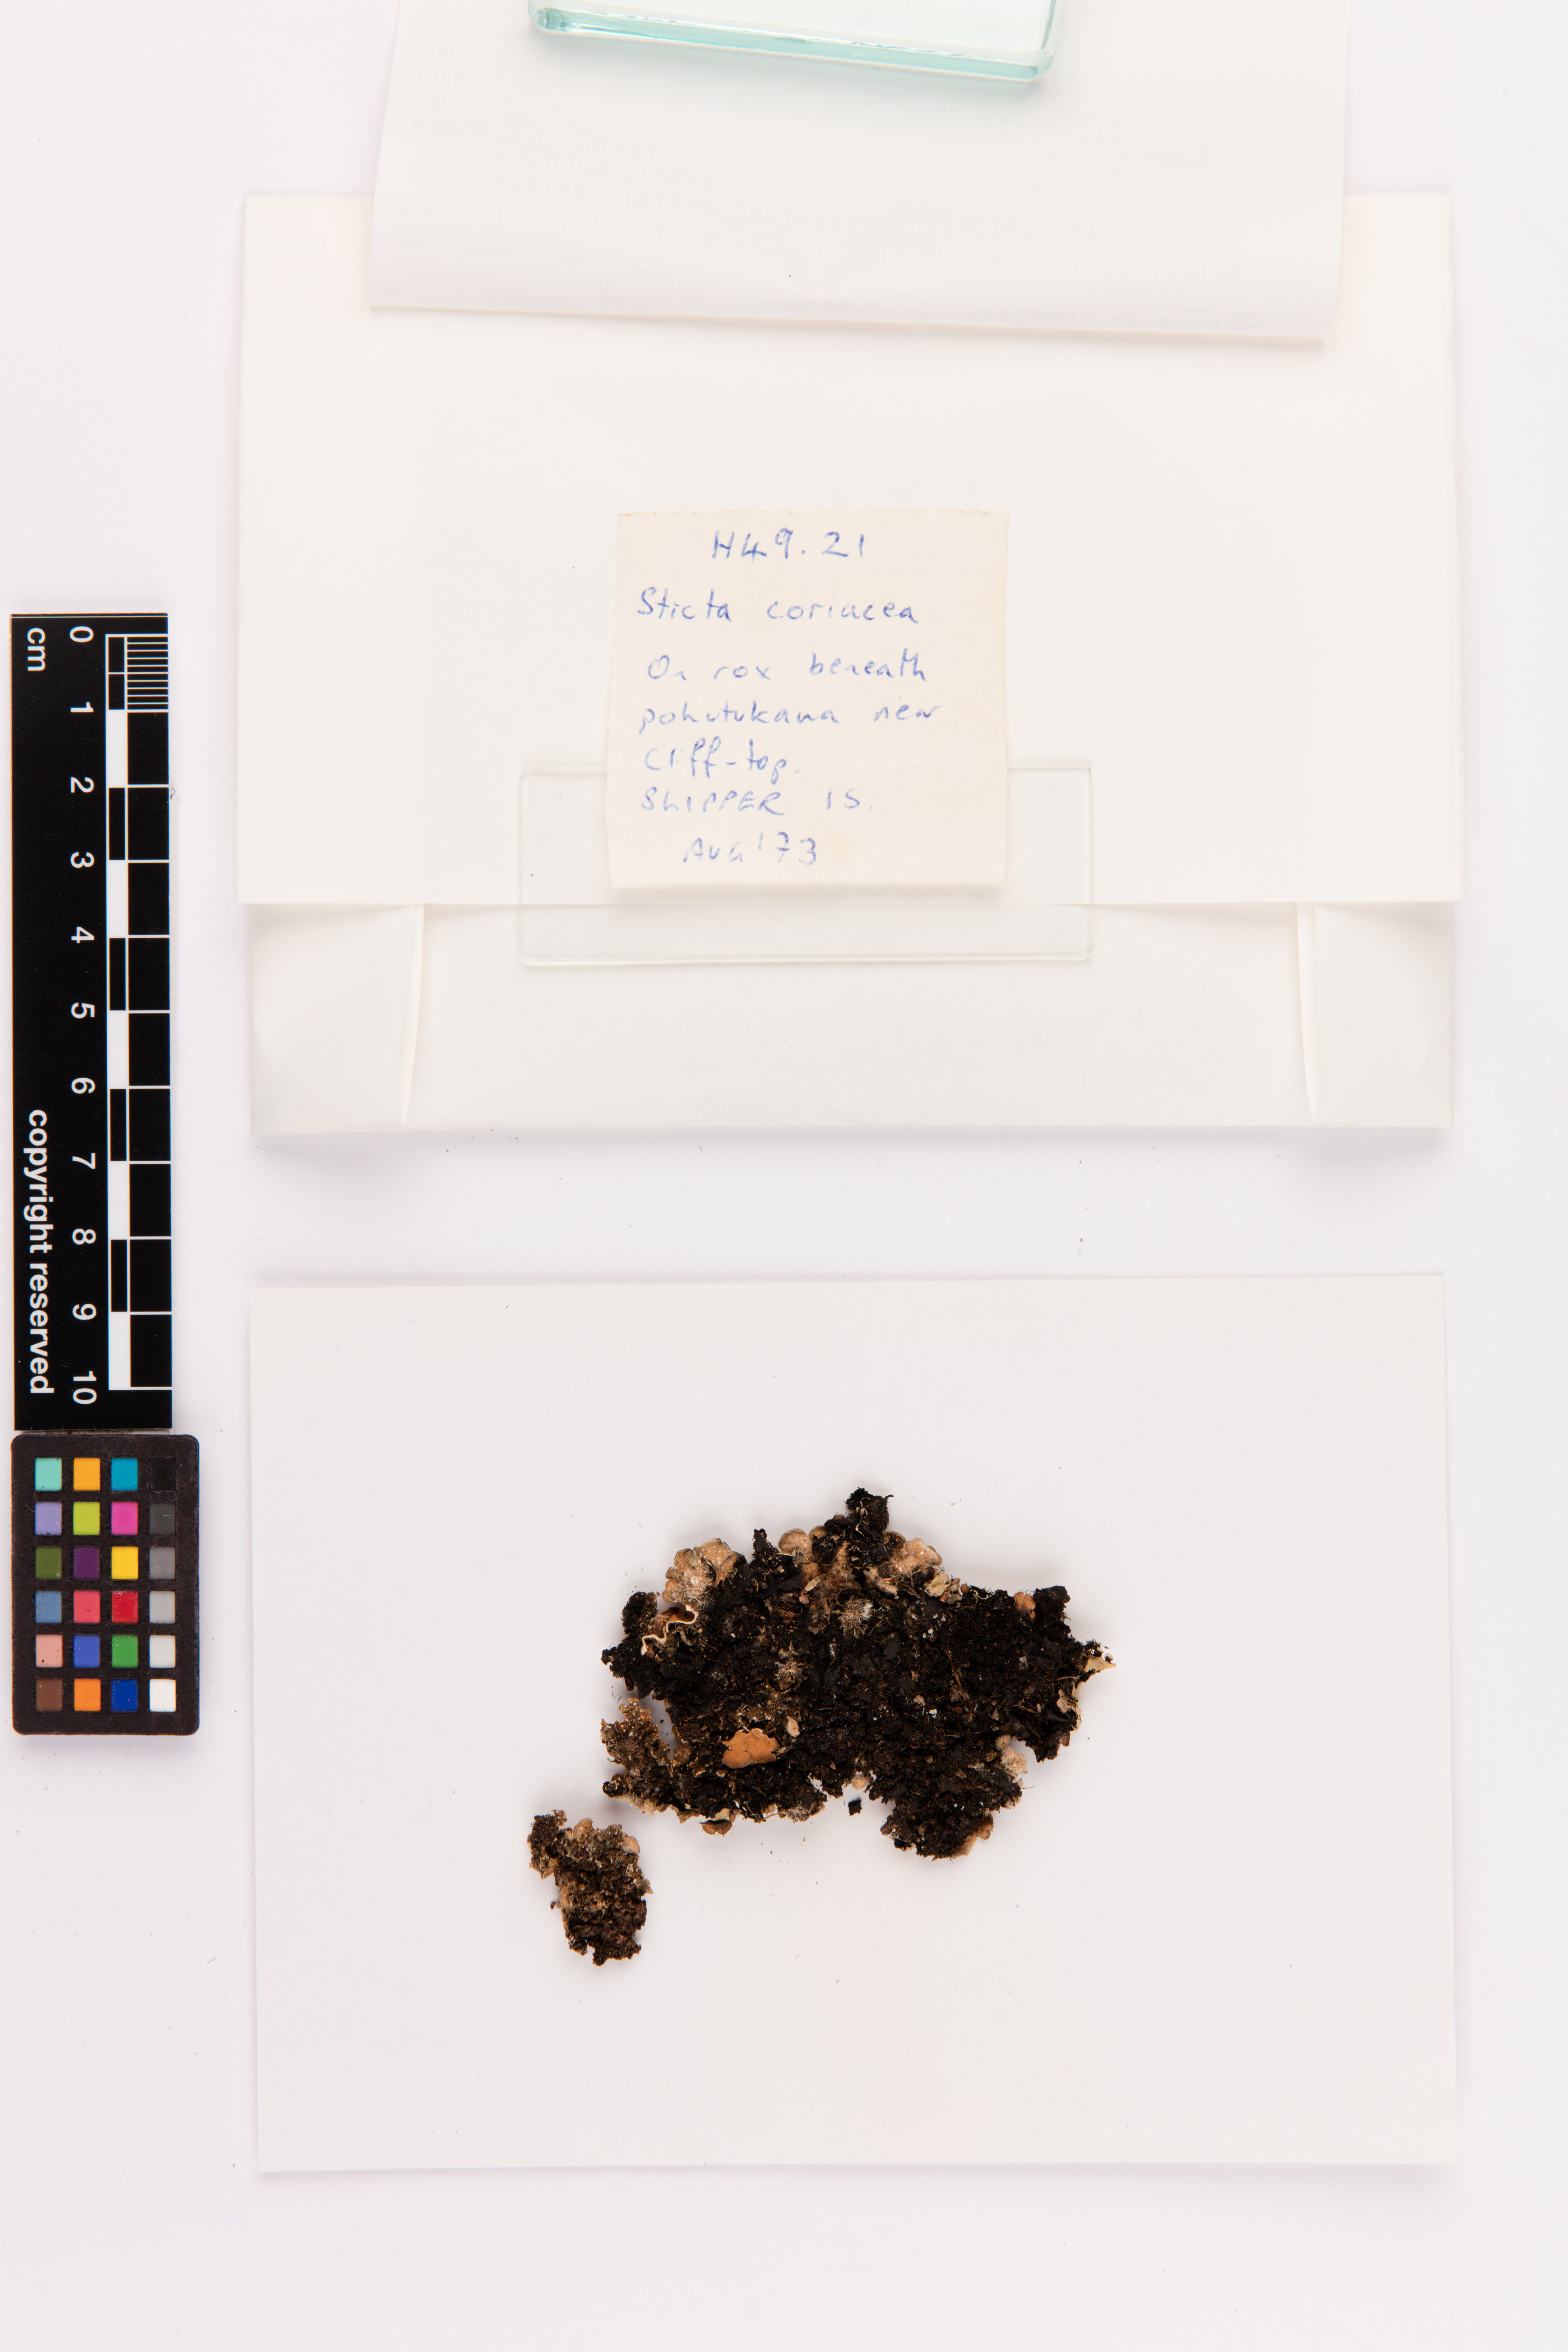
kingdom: Fungi
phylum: Ascomycota
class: Lecanoromycetes
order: Peltigerales
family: Lobariaceae
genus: Pseudocyphellaria
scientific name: Pseudocyphellaria coriacea
